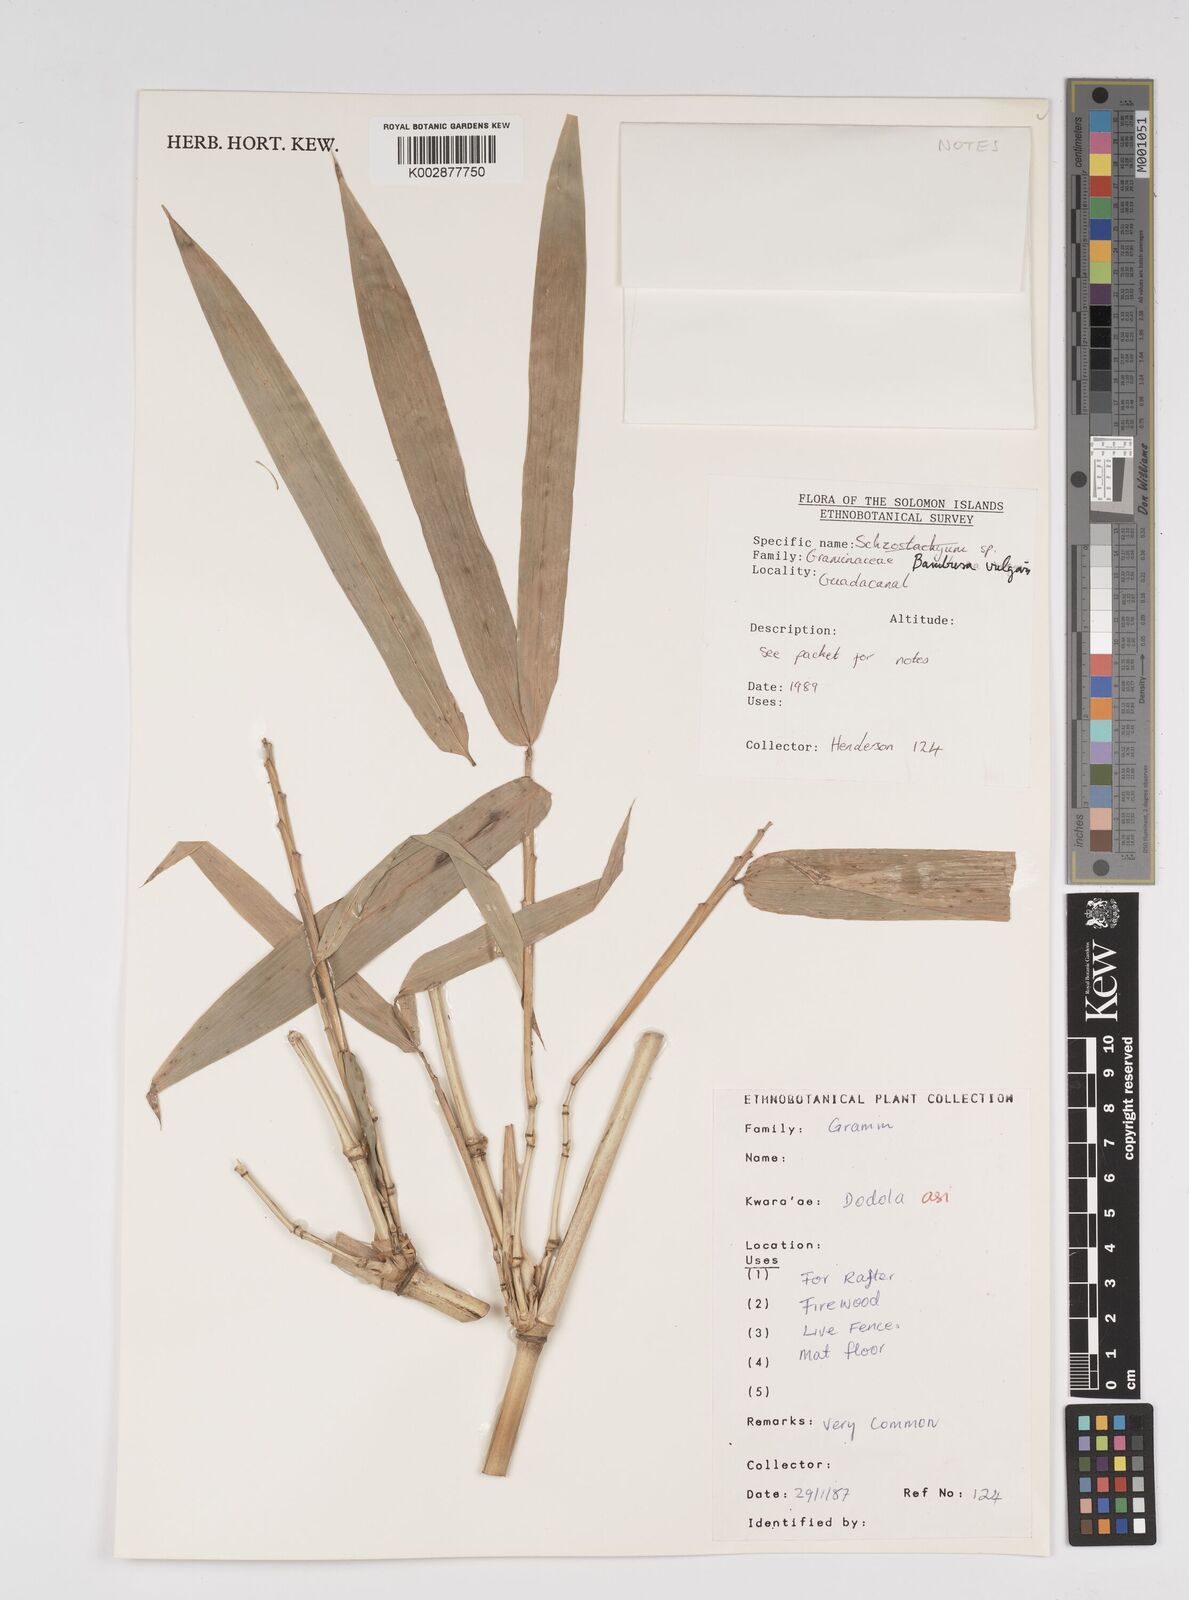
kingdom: Plantae
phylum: Tracheophyta
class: Liliopsida
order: Poales
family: Poaceae
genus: Bambusa
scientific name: Bambusa vulgaris
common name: Common bamboo
